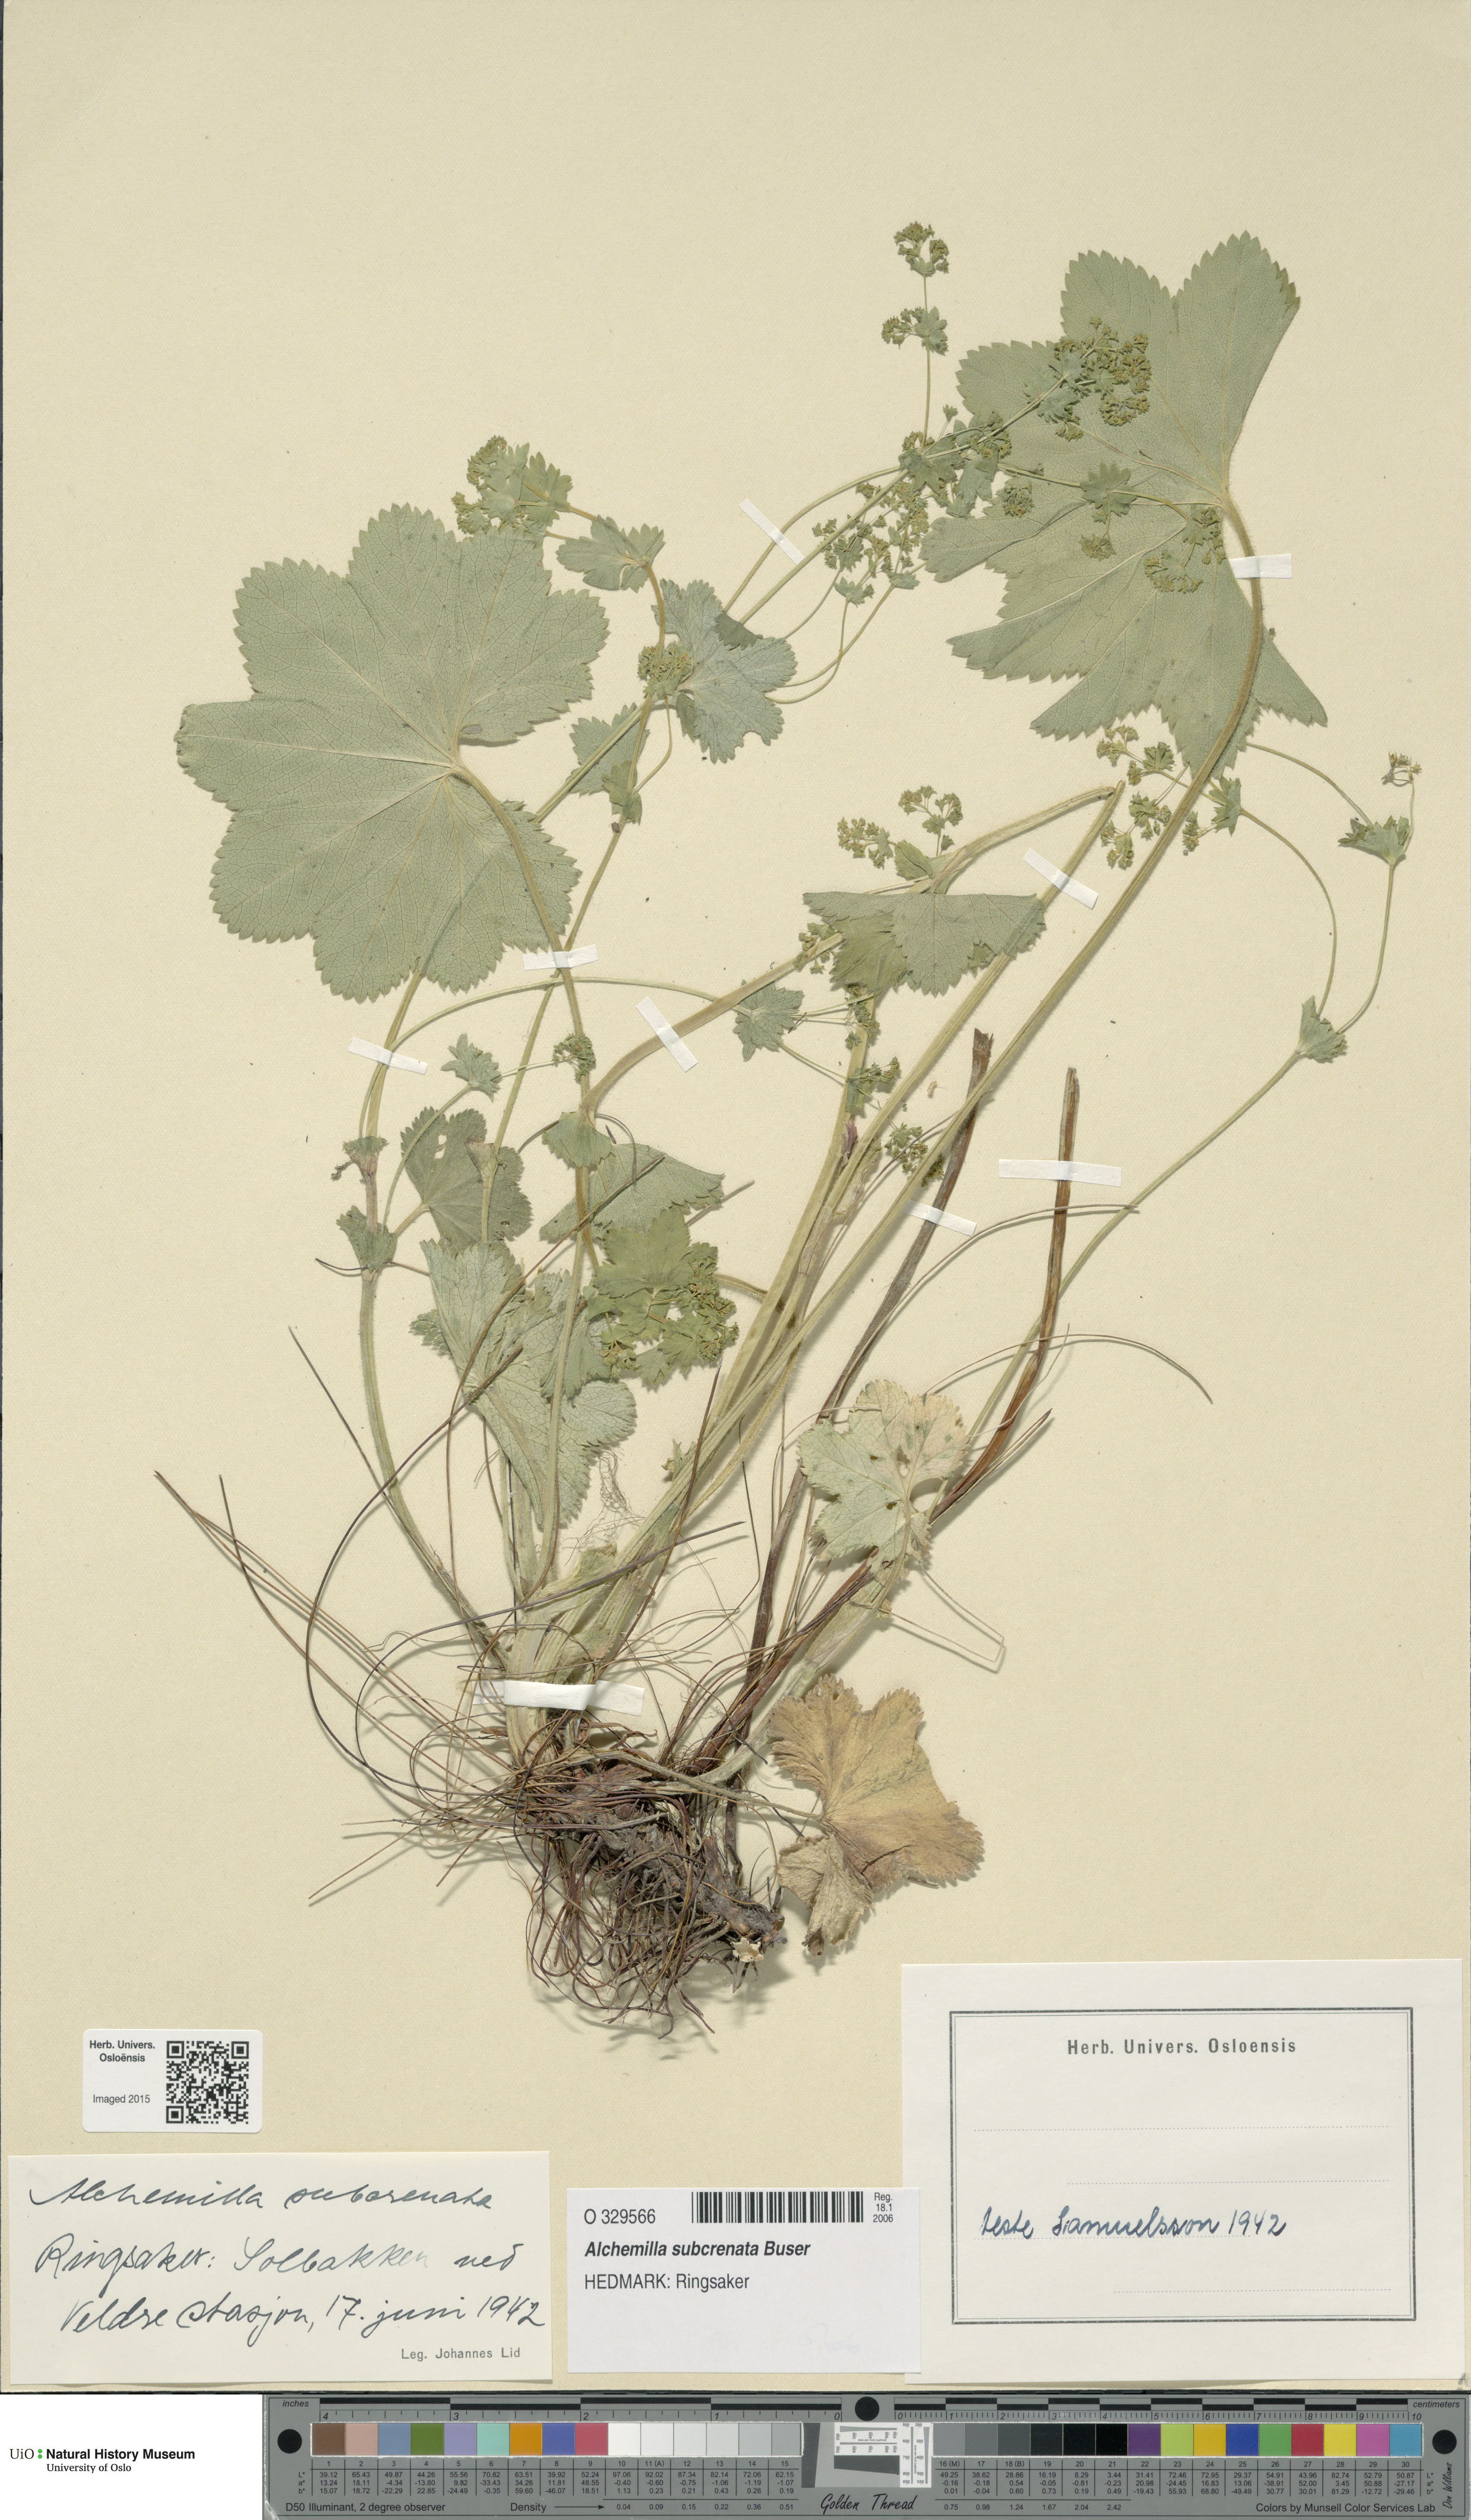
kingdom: Plantae
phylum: Tracheophyta
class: Magnoliopsida
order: Rosales
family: Rosaceae
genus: Alchemilla
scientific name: Alchemilla subcrenata
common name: Broadtooth lady's mantle
